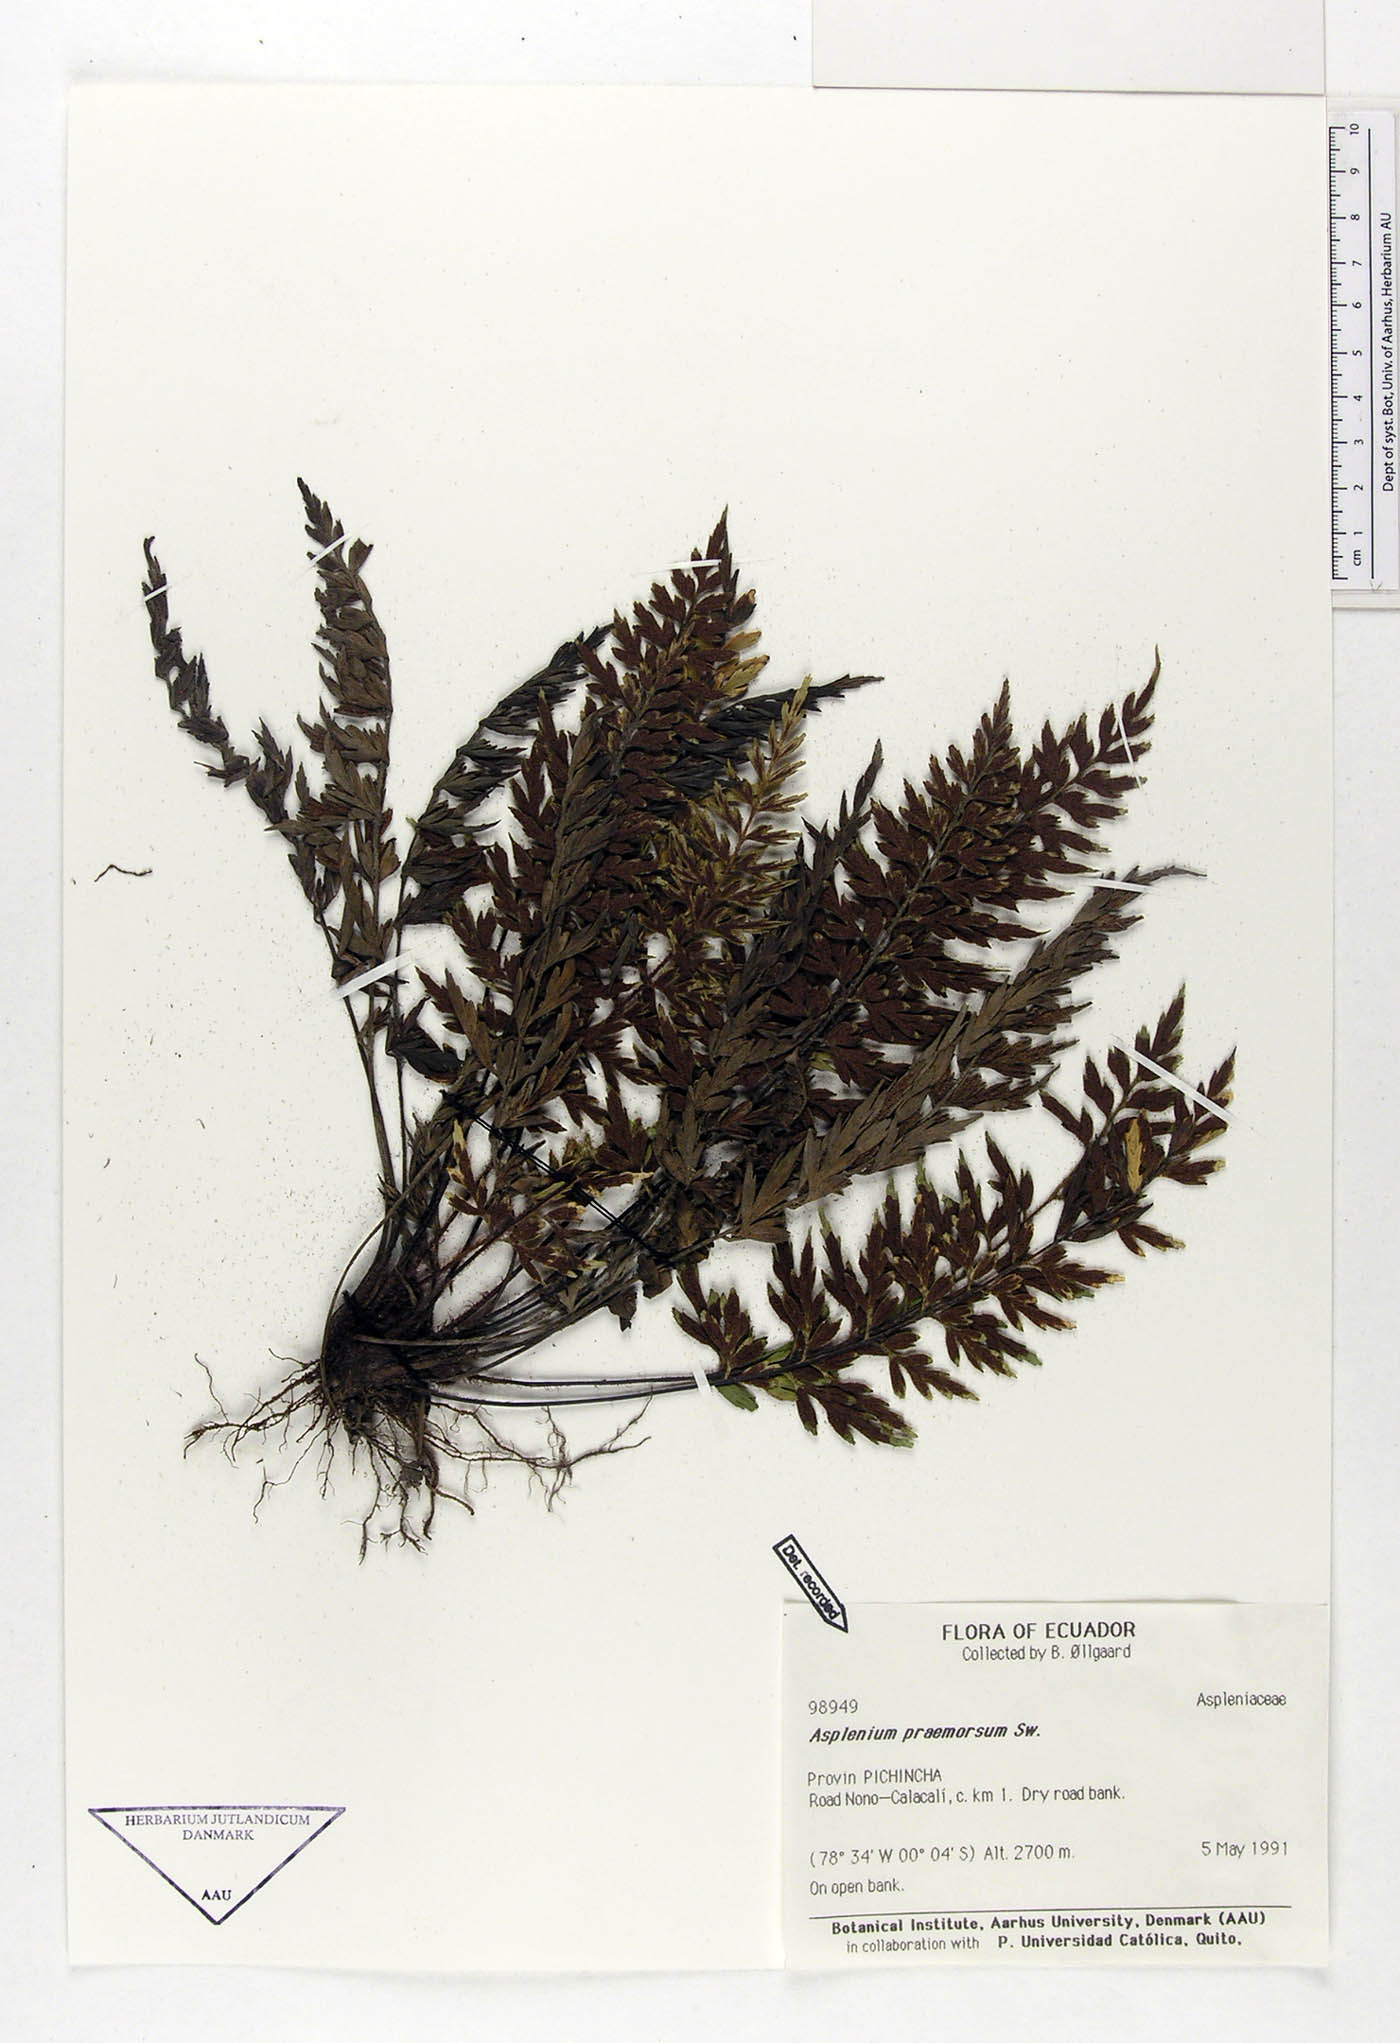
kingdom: Plantae
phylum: Tracheophyta
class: Polypodiopsida
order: Polypodiales
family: Aspleniaceae
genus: Asplenium
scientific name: Asplenium praemorsum
